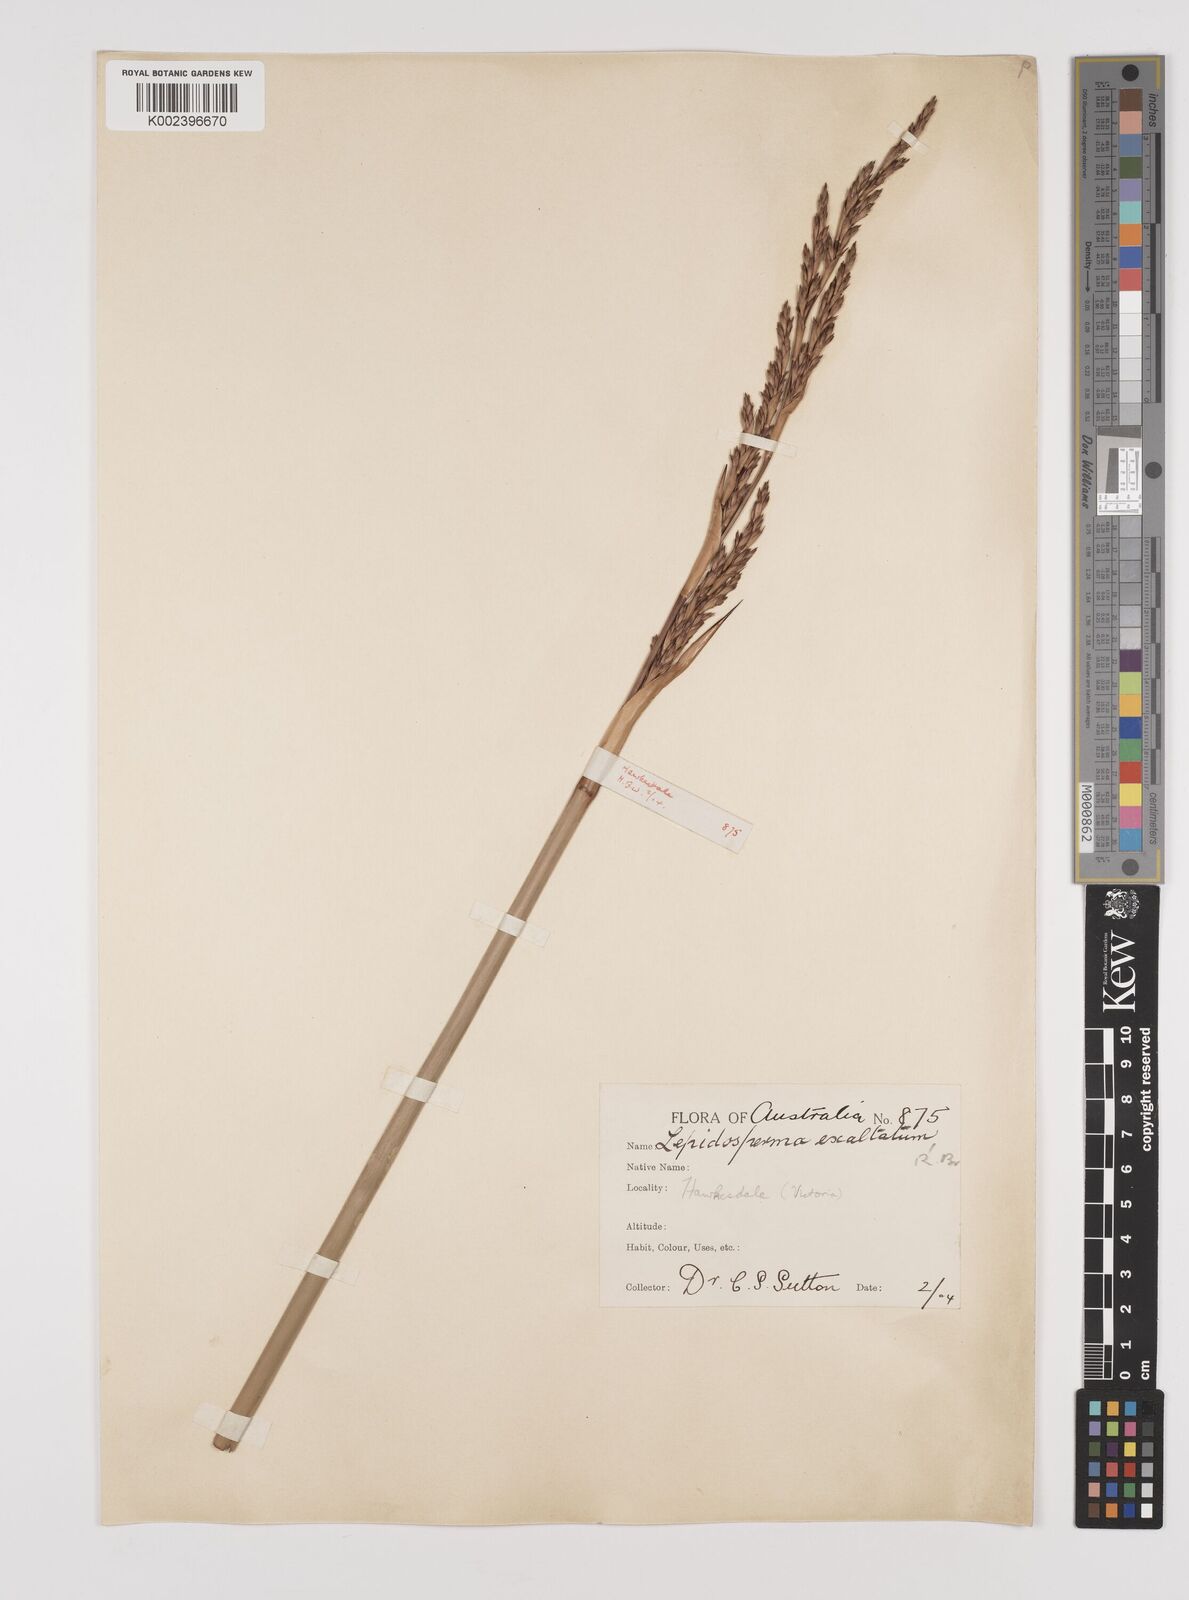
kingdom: Plantae
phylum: Tracheophyta
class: Liliopsida
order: Poales
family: Cyperaceae
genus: Lepidosperma
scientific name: Lepidosperma longitudinale
